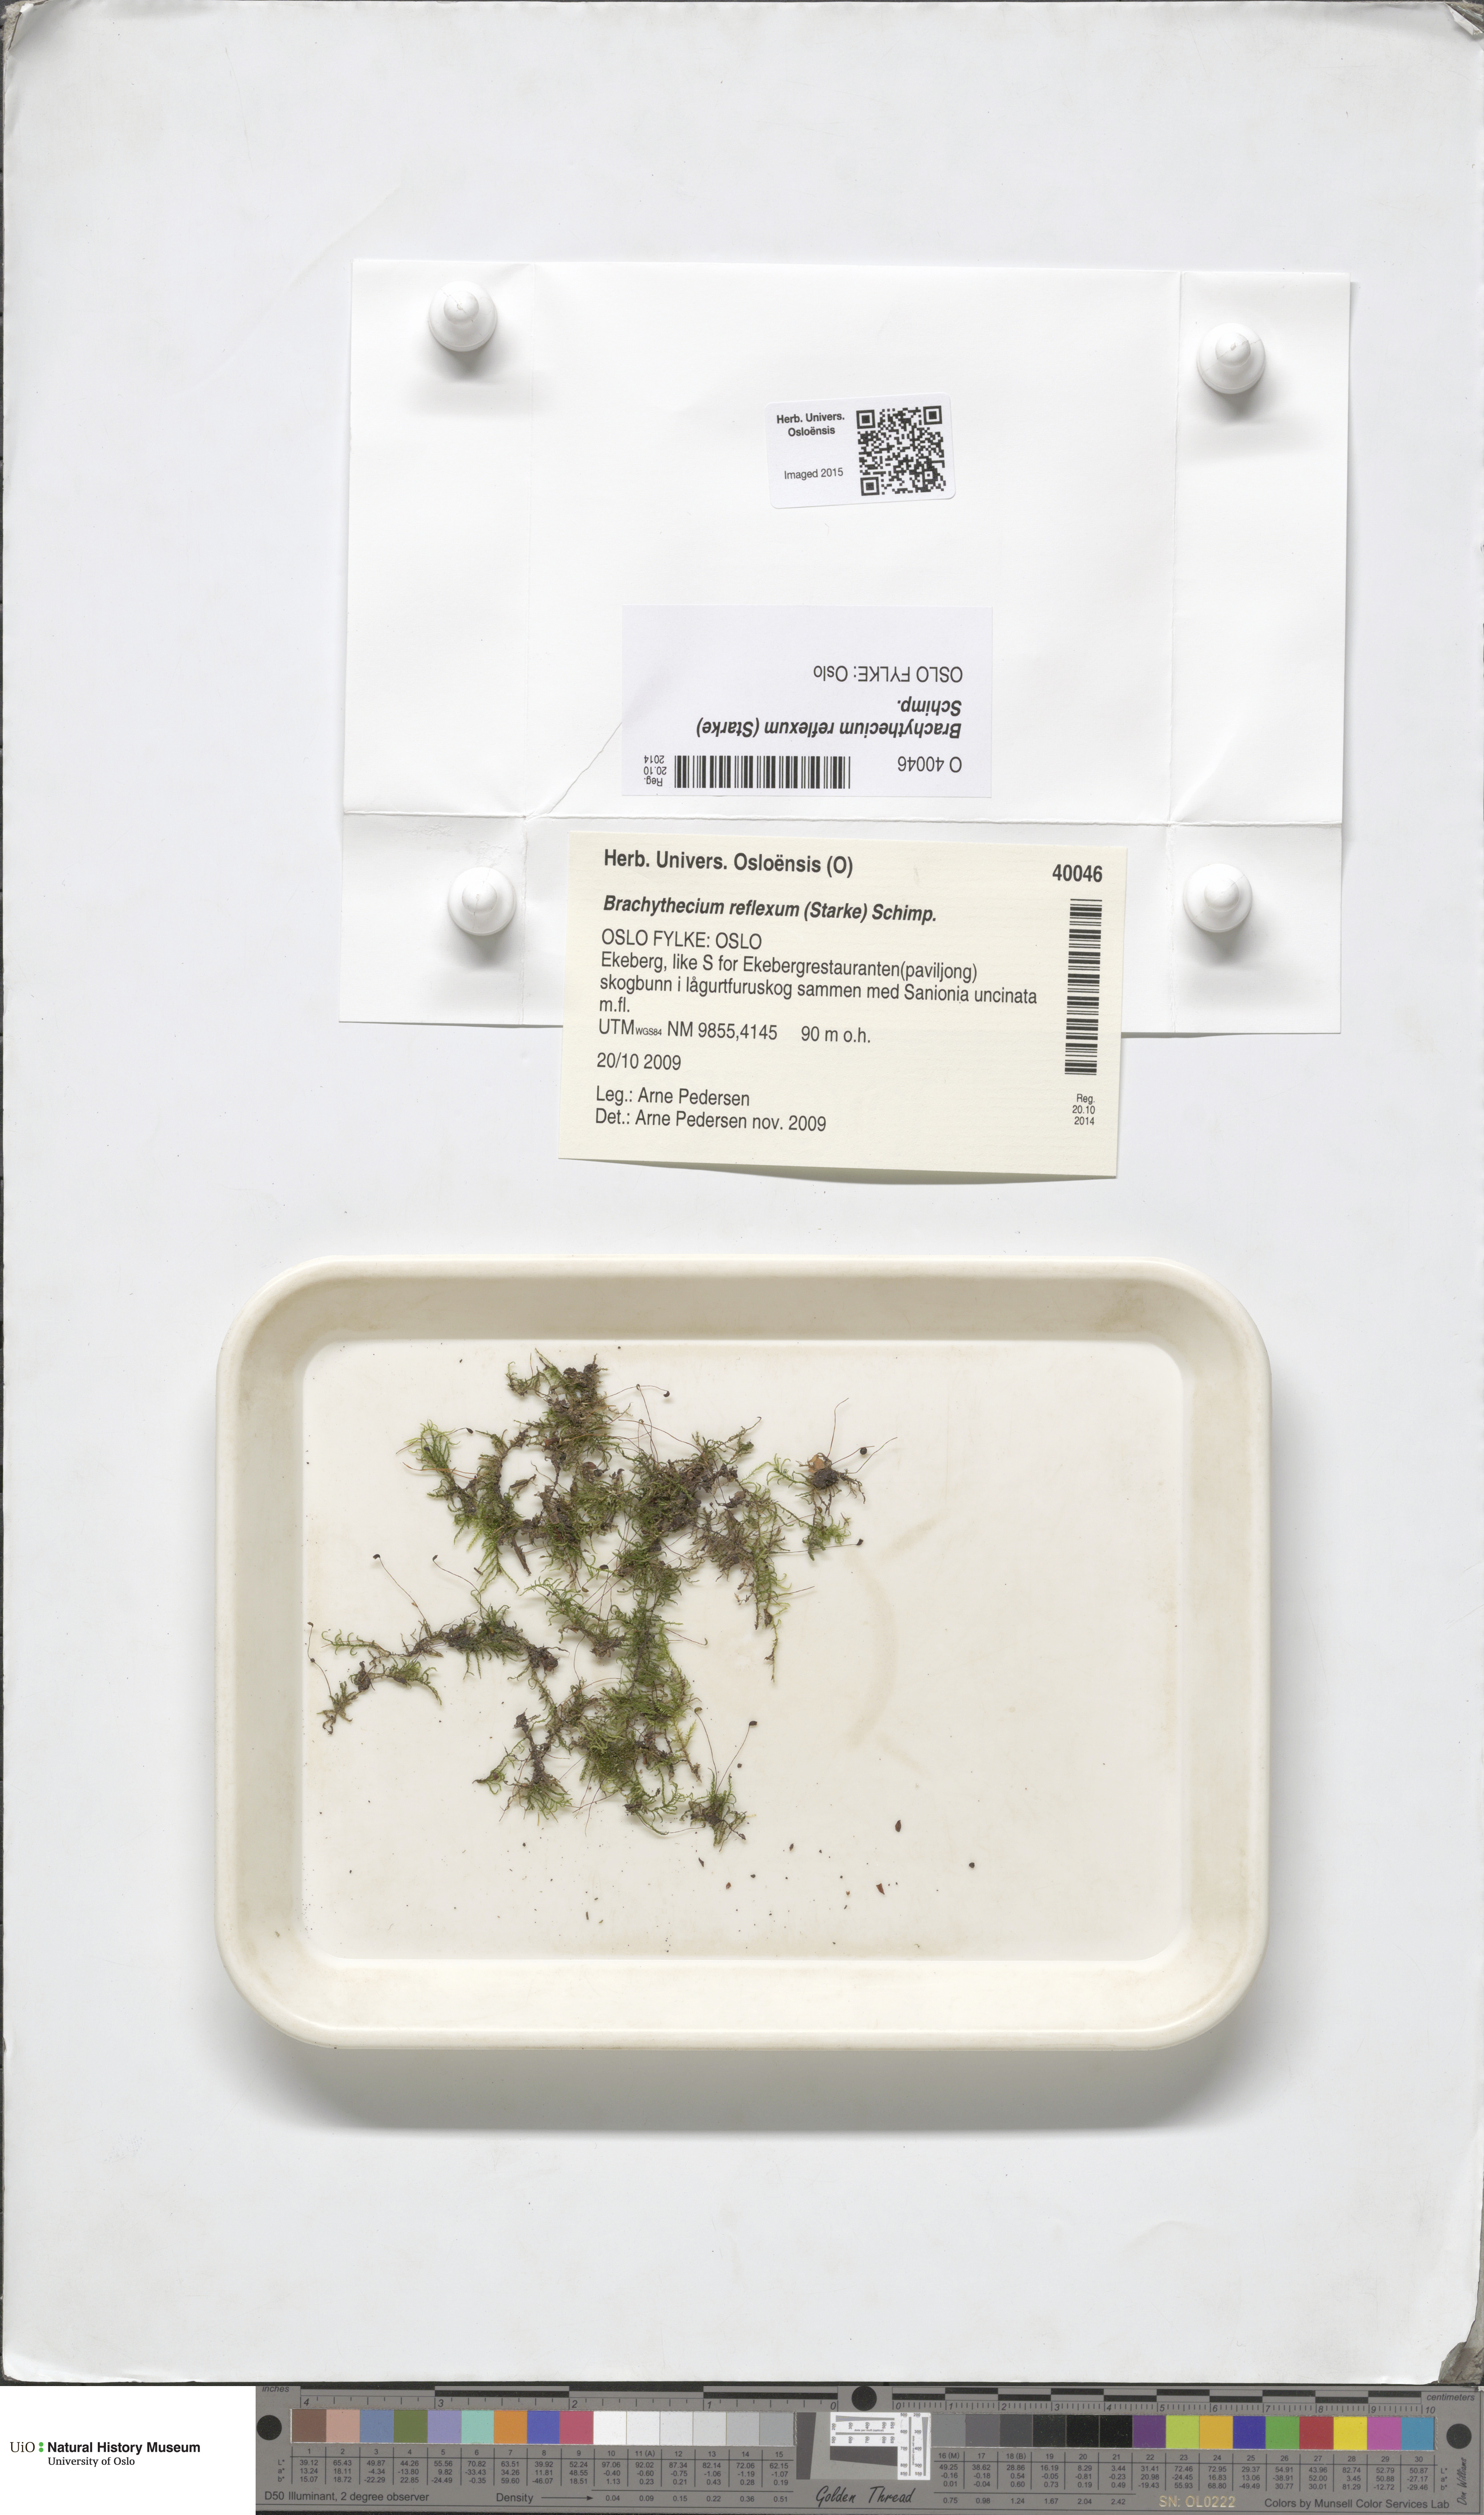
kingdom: Plantae
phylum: Bryophyta
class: Bryopsida
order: Hypnales
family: Brachytheciaceae
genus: Sciuro-hypnum
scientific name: Sciuro-hypnum reflexum
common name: Reflexed feather-moss
